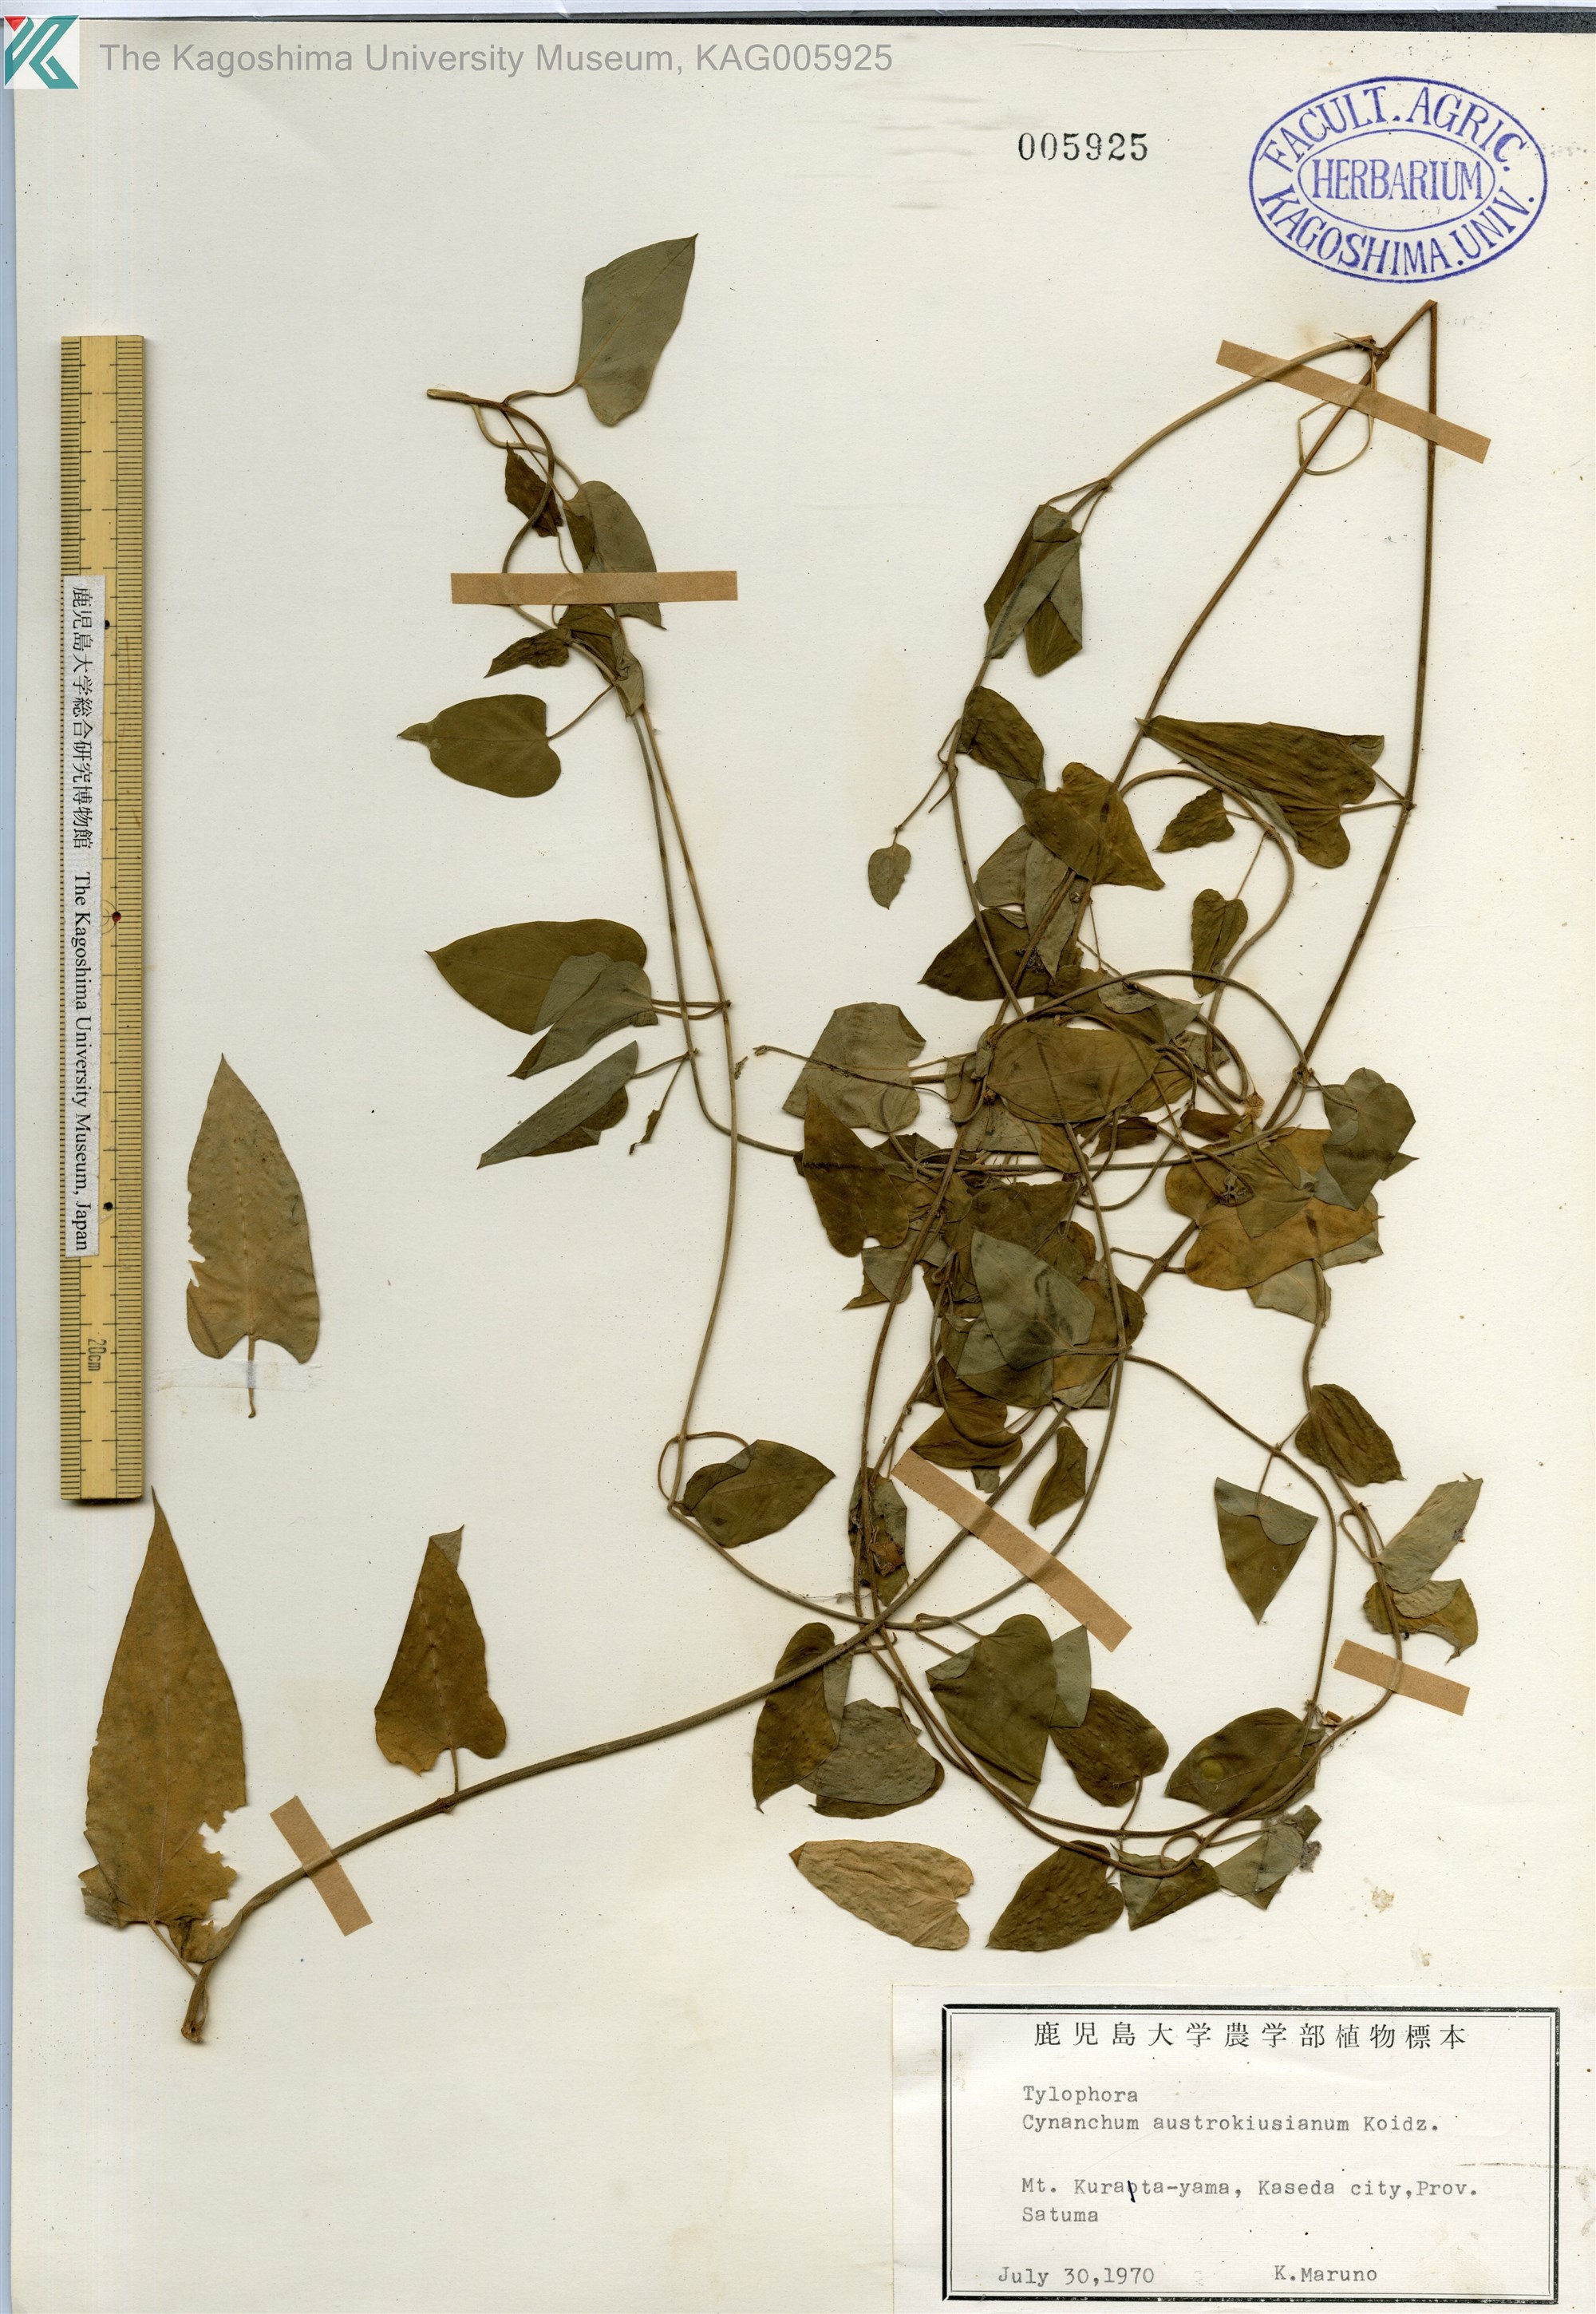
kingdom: Plantae
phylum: Tracheophyta
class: Magnoliopsida
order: Gentianales
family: Apocynaceae
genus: Vincetoxicum
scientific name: Vincetoxicum austrokiusianum
